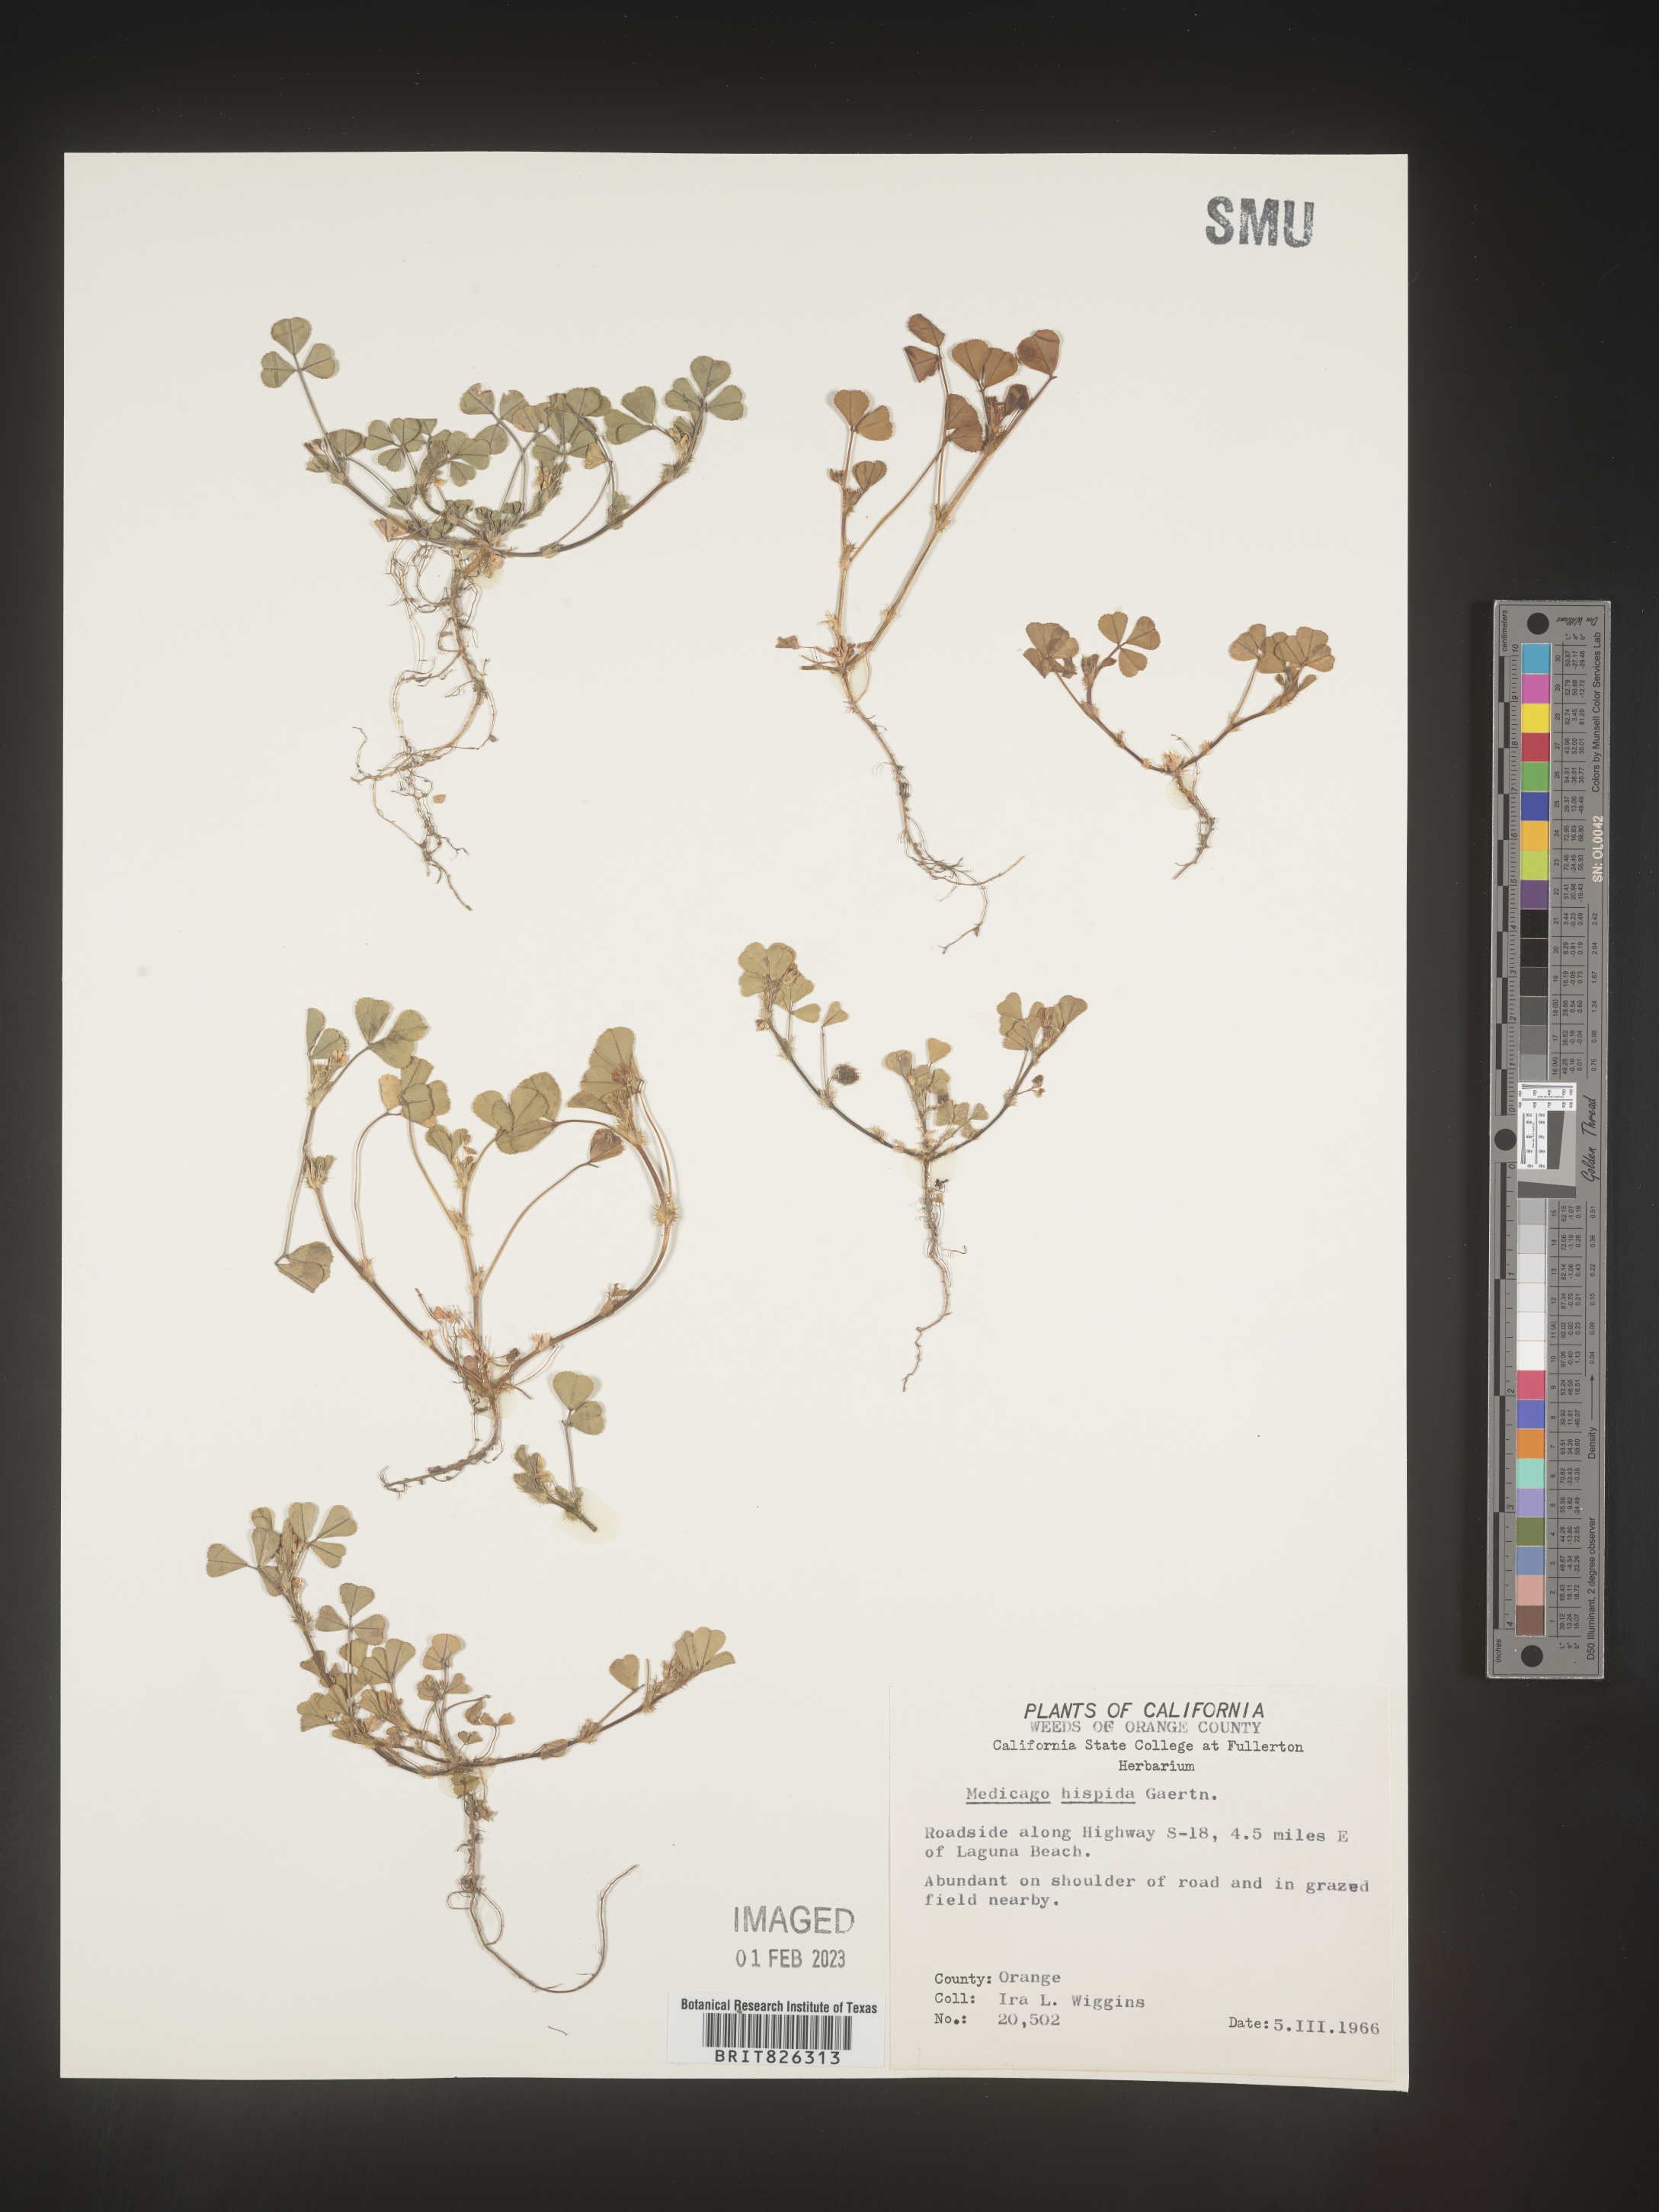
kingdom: Plantae
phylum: Tracheophyta
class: Magnoliopsida
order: Fabales
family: Fabaceae
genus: Medicago
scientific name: Medicago polymorpha
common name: Burclover
